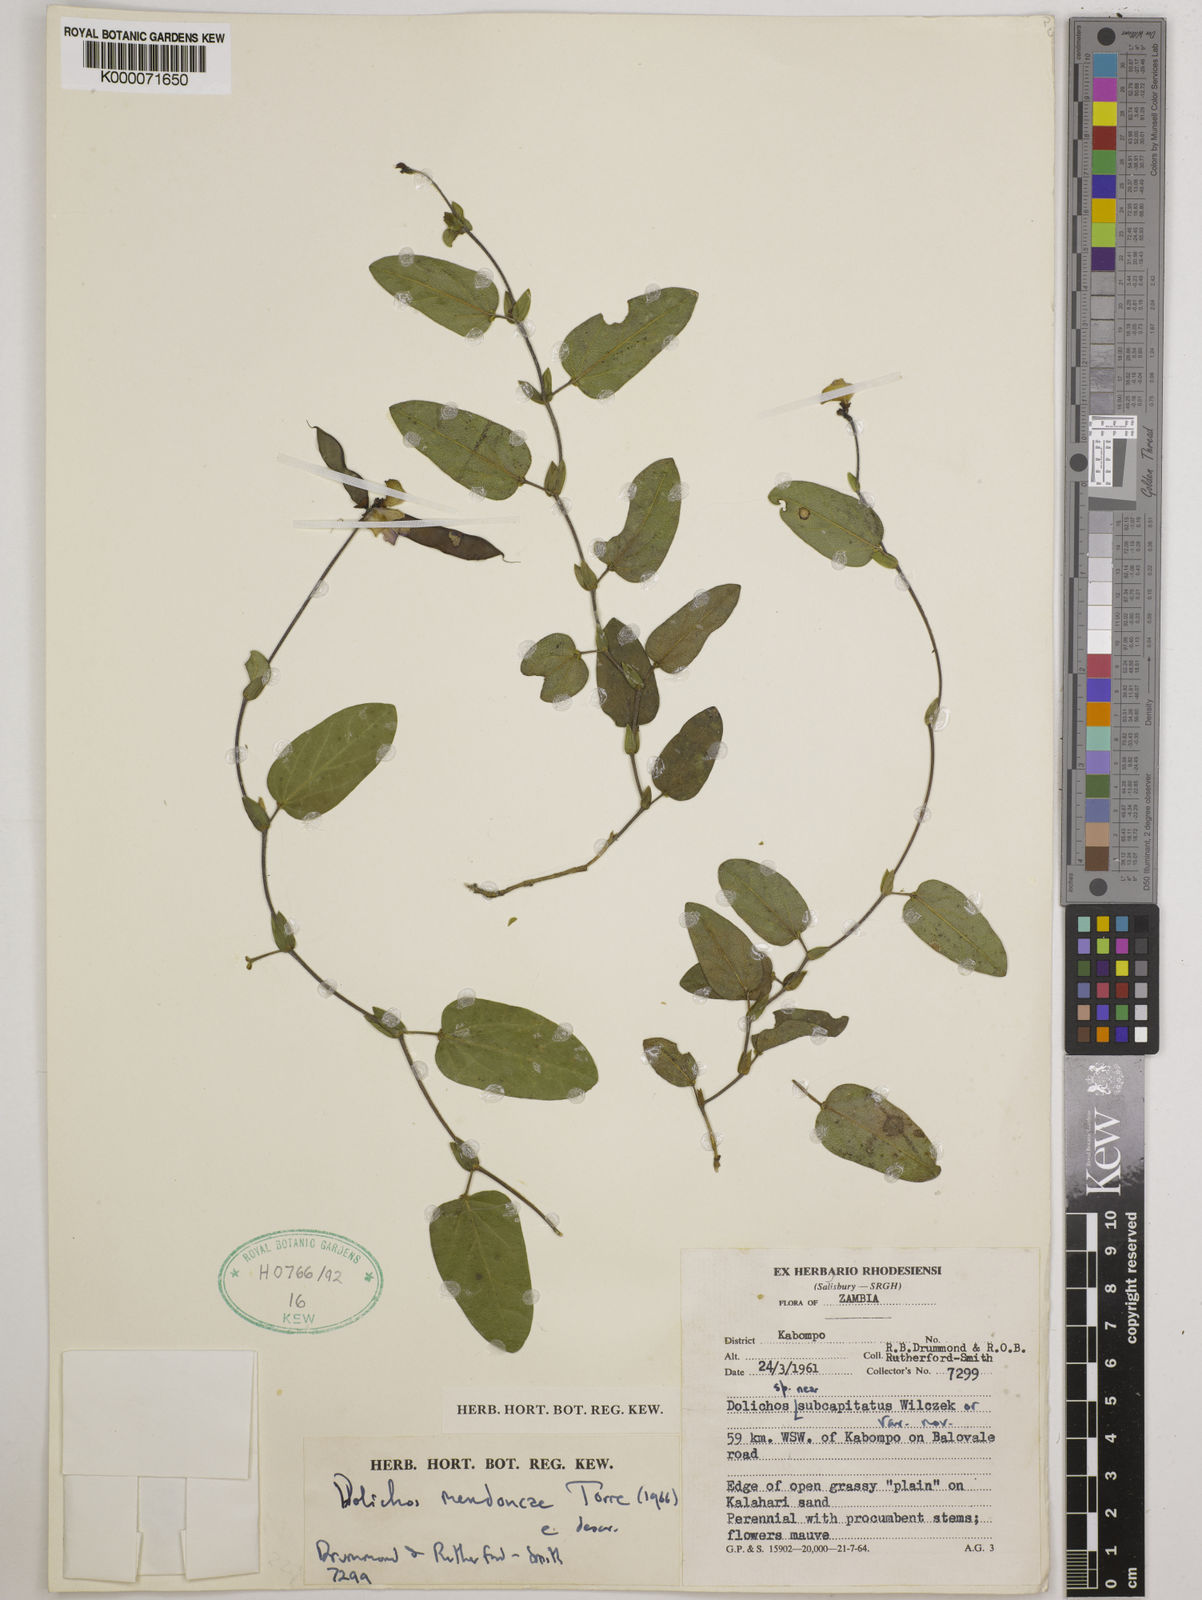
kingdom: Plantae
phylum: Tracheophyta
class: Magnoliopsida
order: Fabales
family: Fabaceae
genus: Dolichos
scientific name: Dolichos mendoncae
